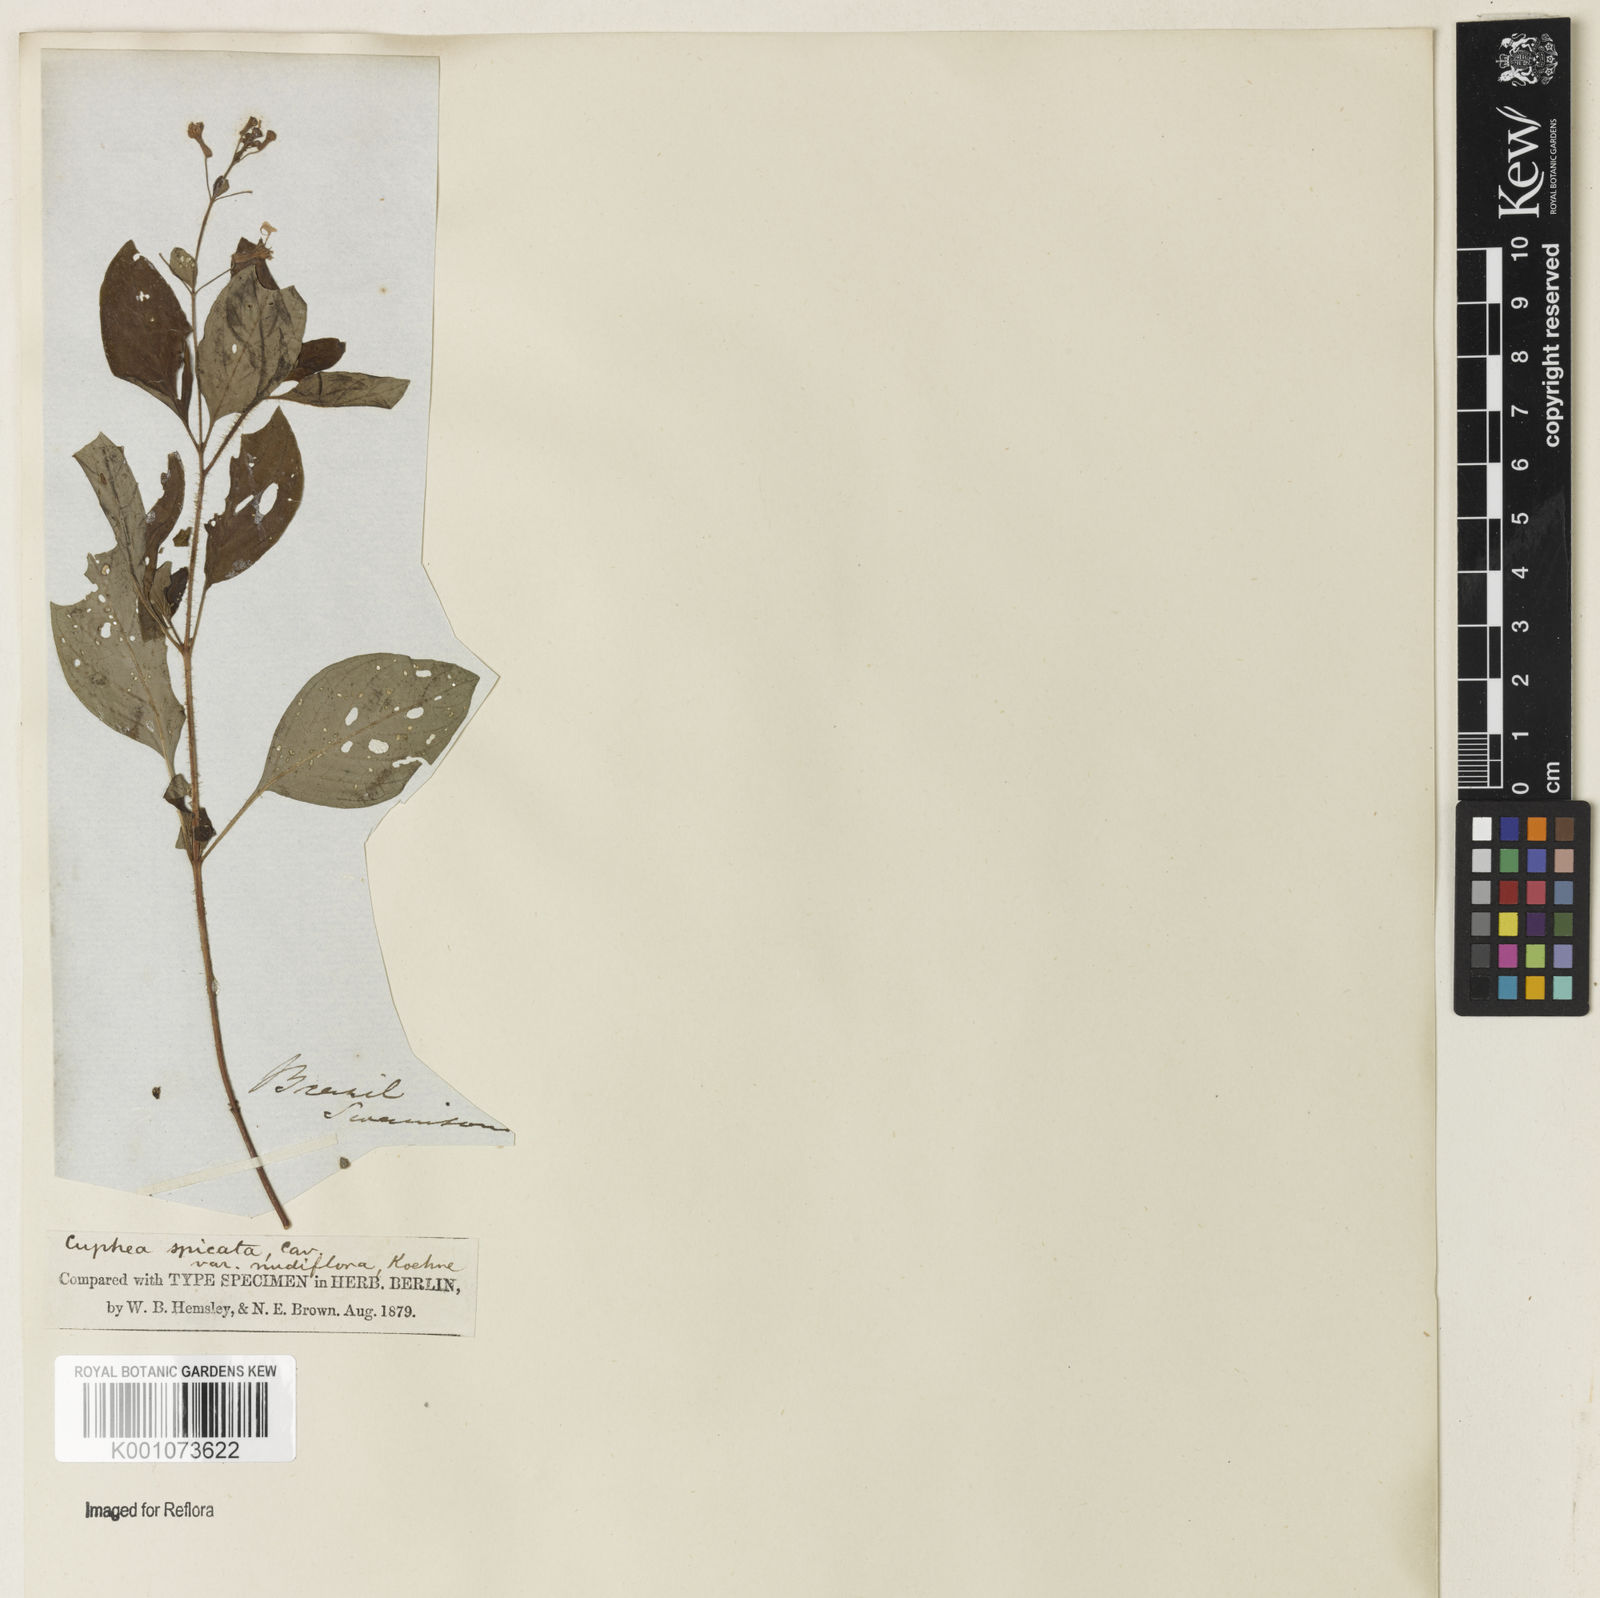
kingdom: Plantae
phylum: Tracheophyta
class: Magnoliopsida
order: Myrtales
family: Lythraceae
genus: Cuphea
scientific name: Cuphea racemosa
